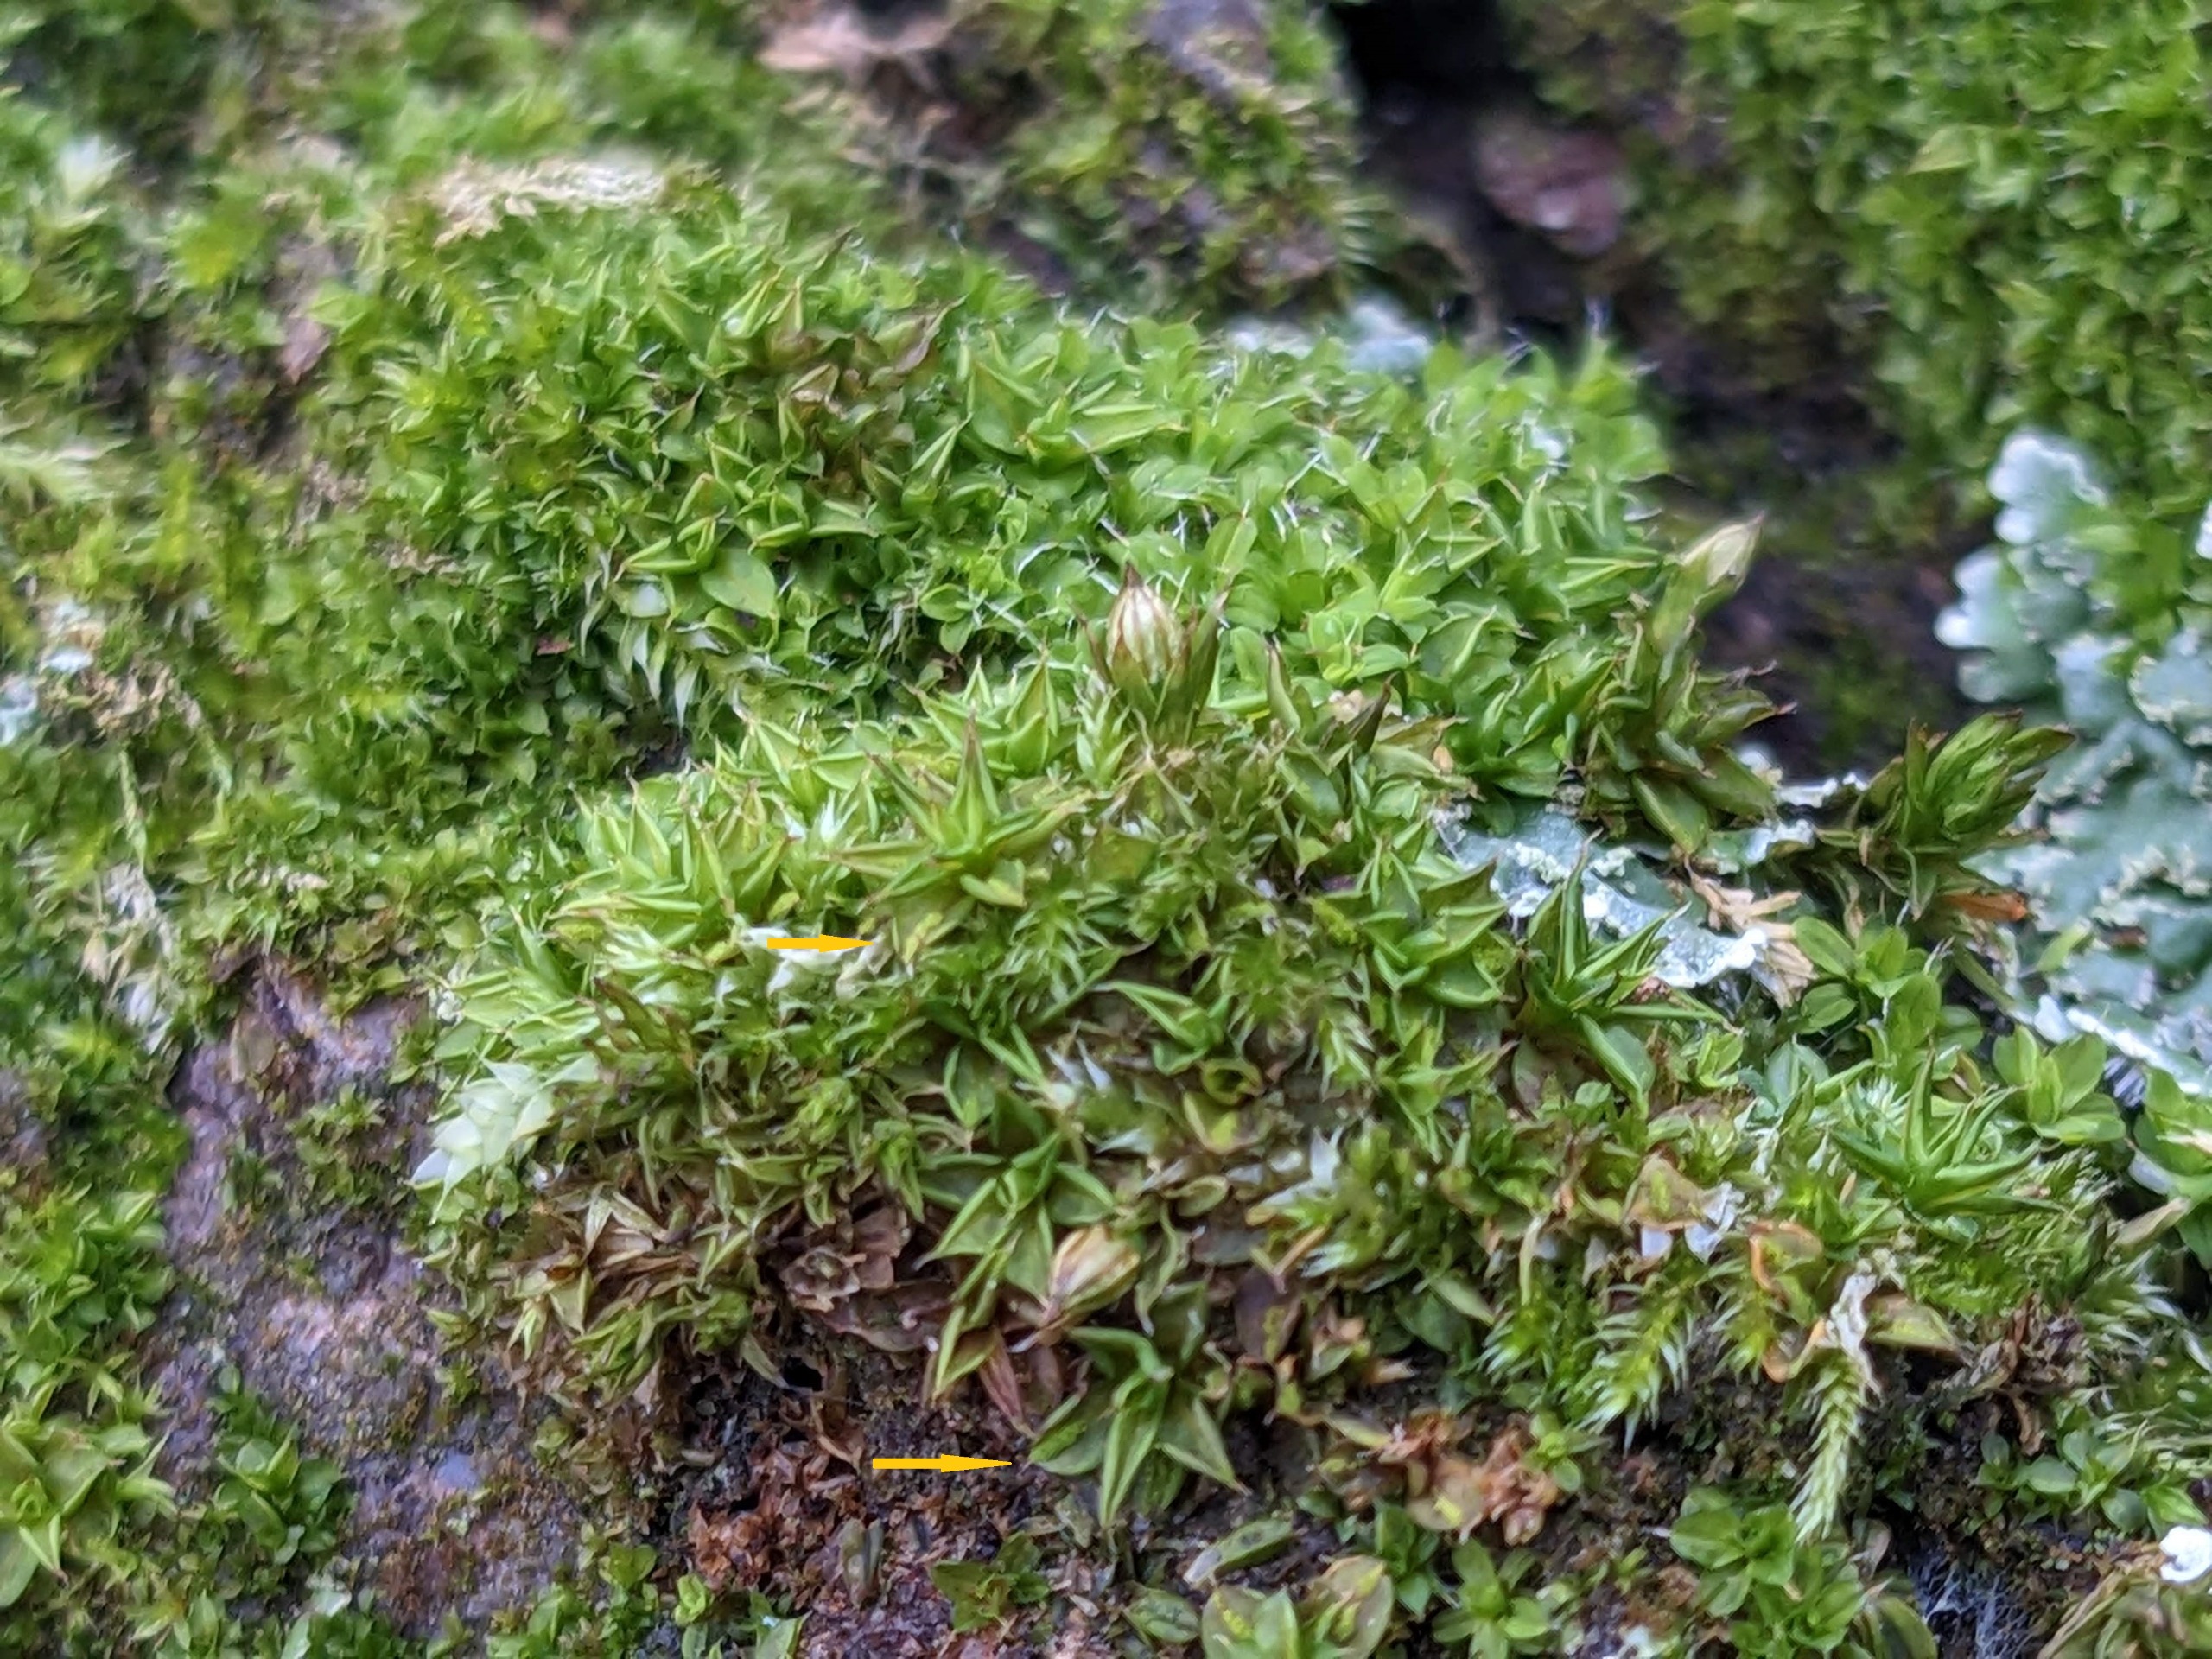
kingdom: Plantae
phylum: Bryophyta
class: Bryopsida
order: Pottiales
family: Pottiaceae
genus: Syntrichia
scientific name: Syntrichia papillosa
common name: Bark-hårstjerne
